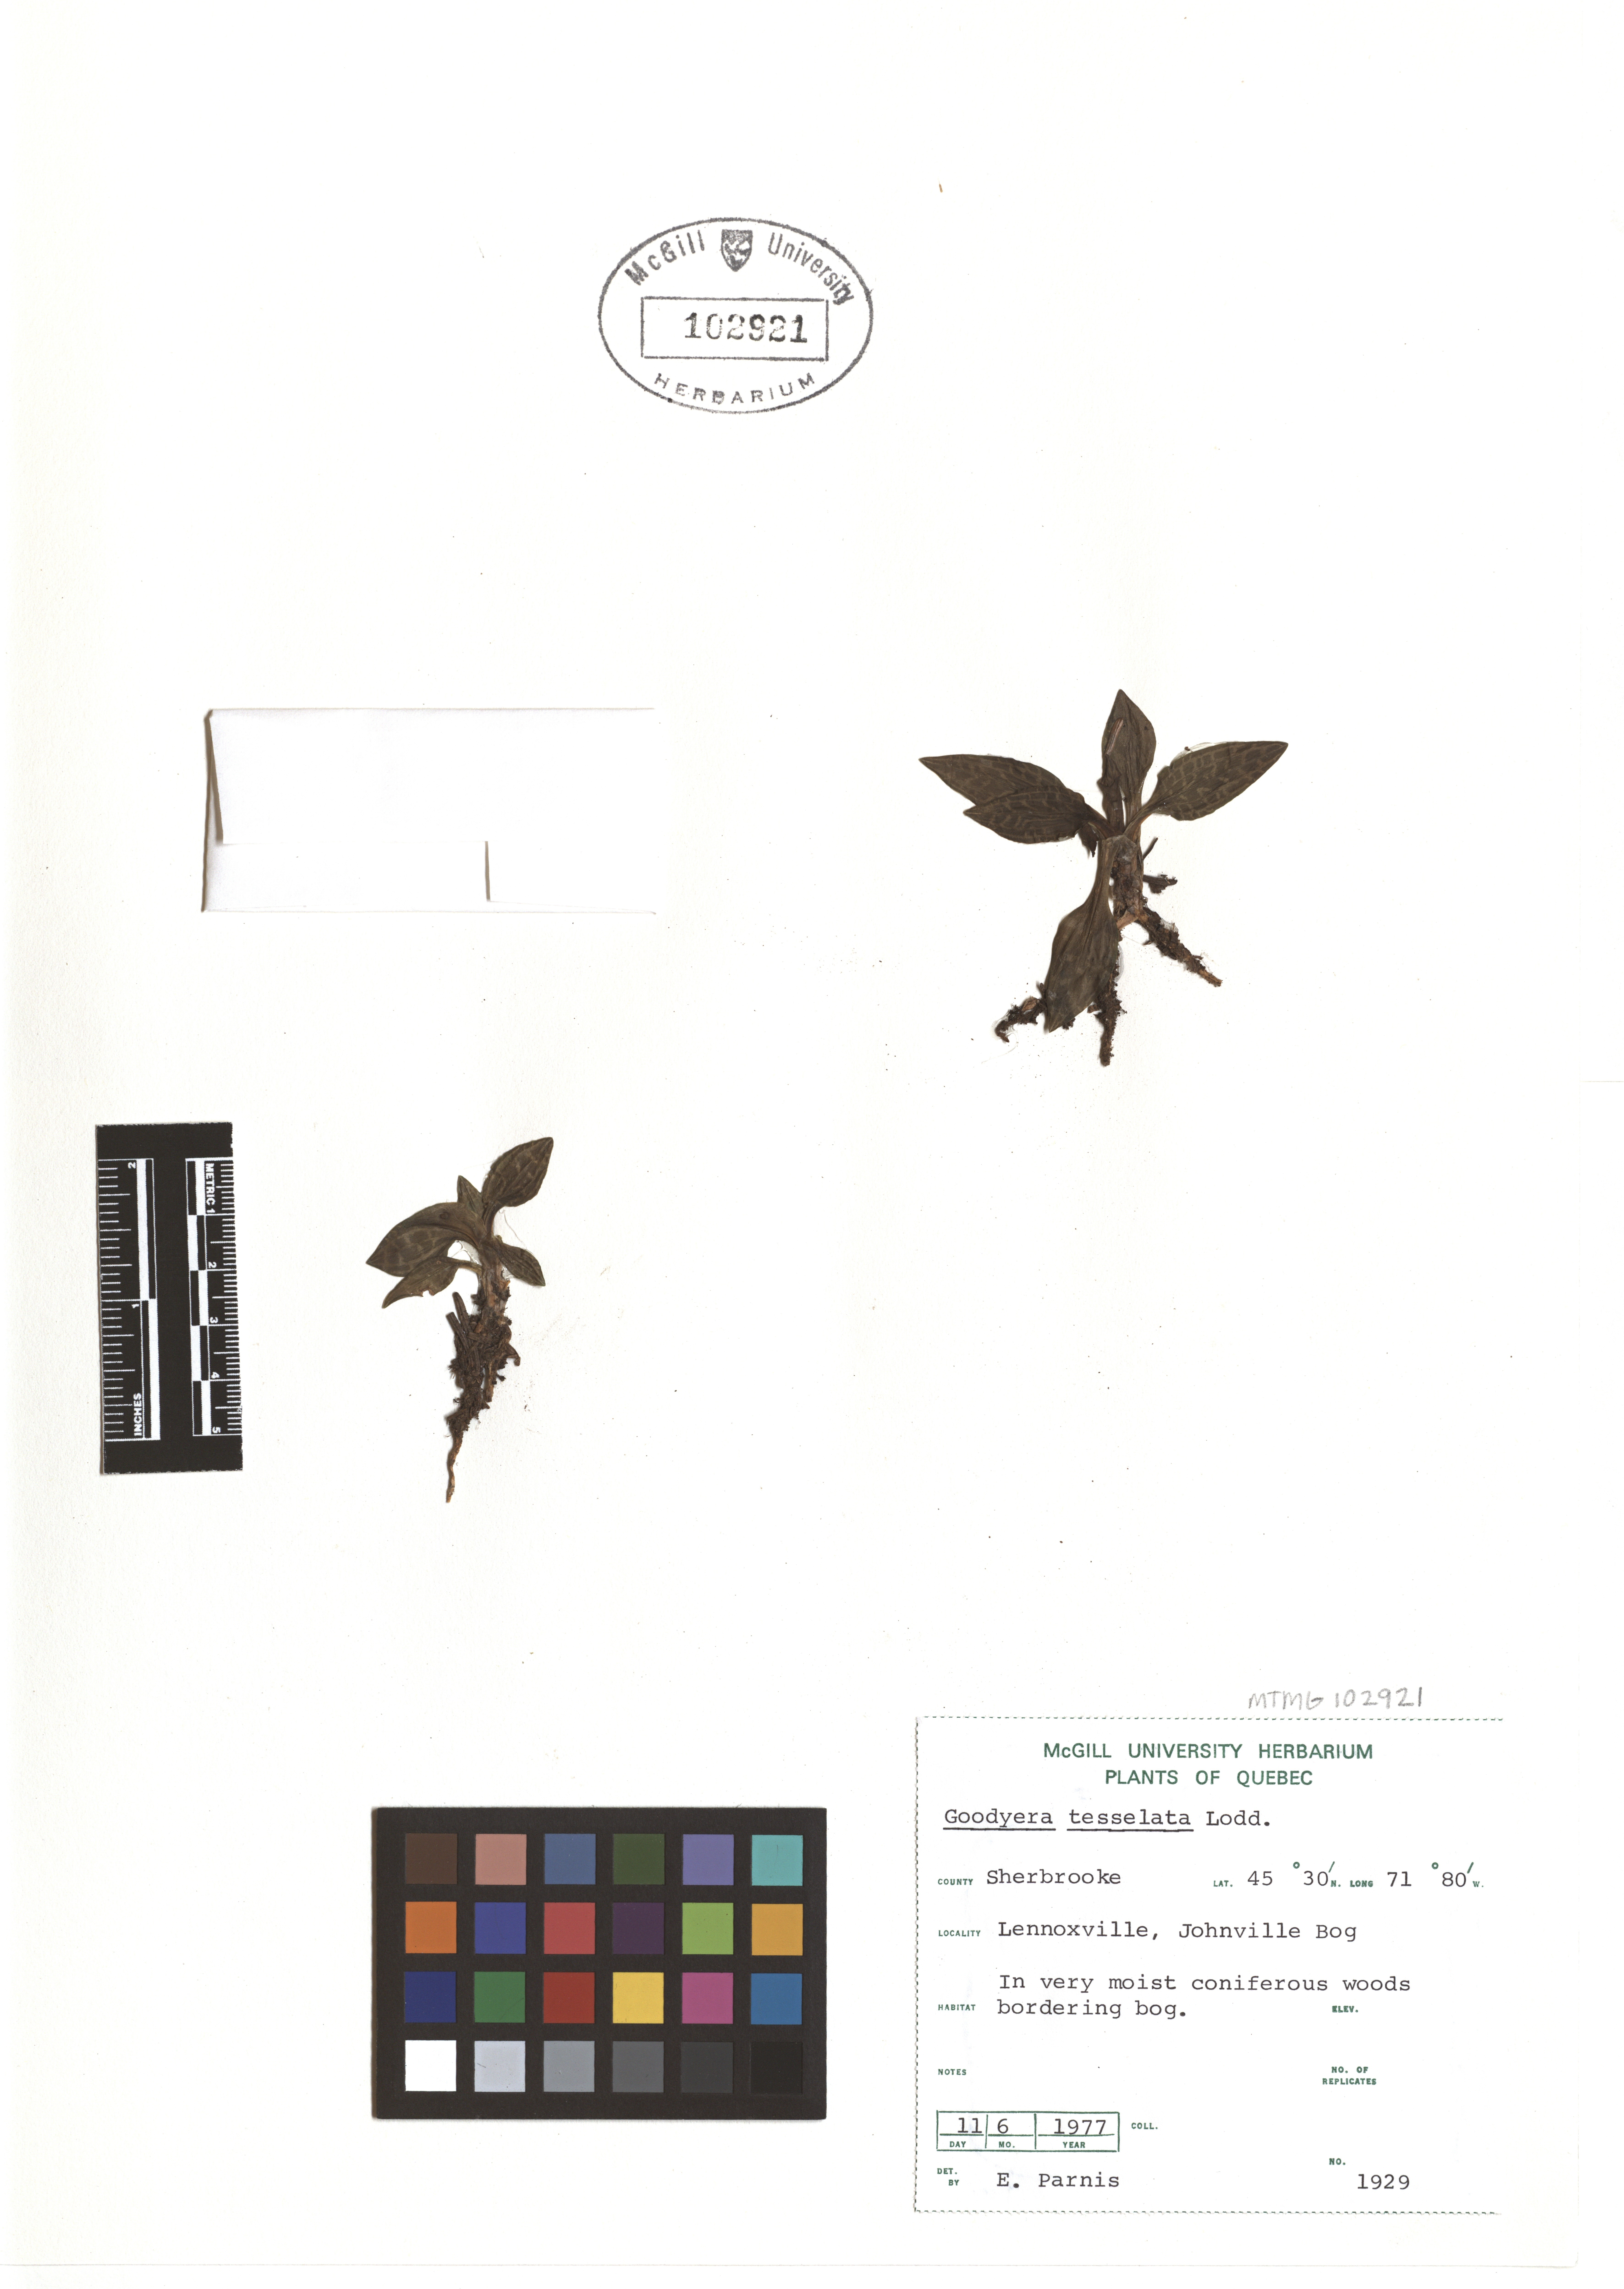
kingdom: Plantae
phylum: Tracheophyta
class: Liliopsida
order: Asparagales
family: Orchidaceae
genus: Goodyera
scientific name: Goodyera tesselata
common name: Checkered rattlesnake-plantain
